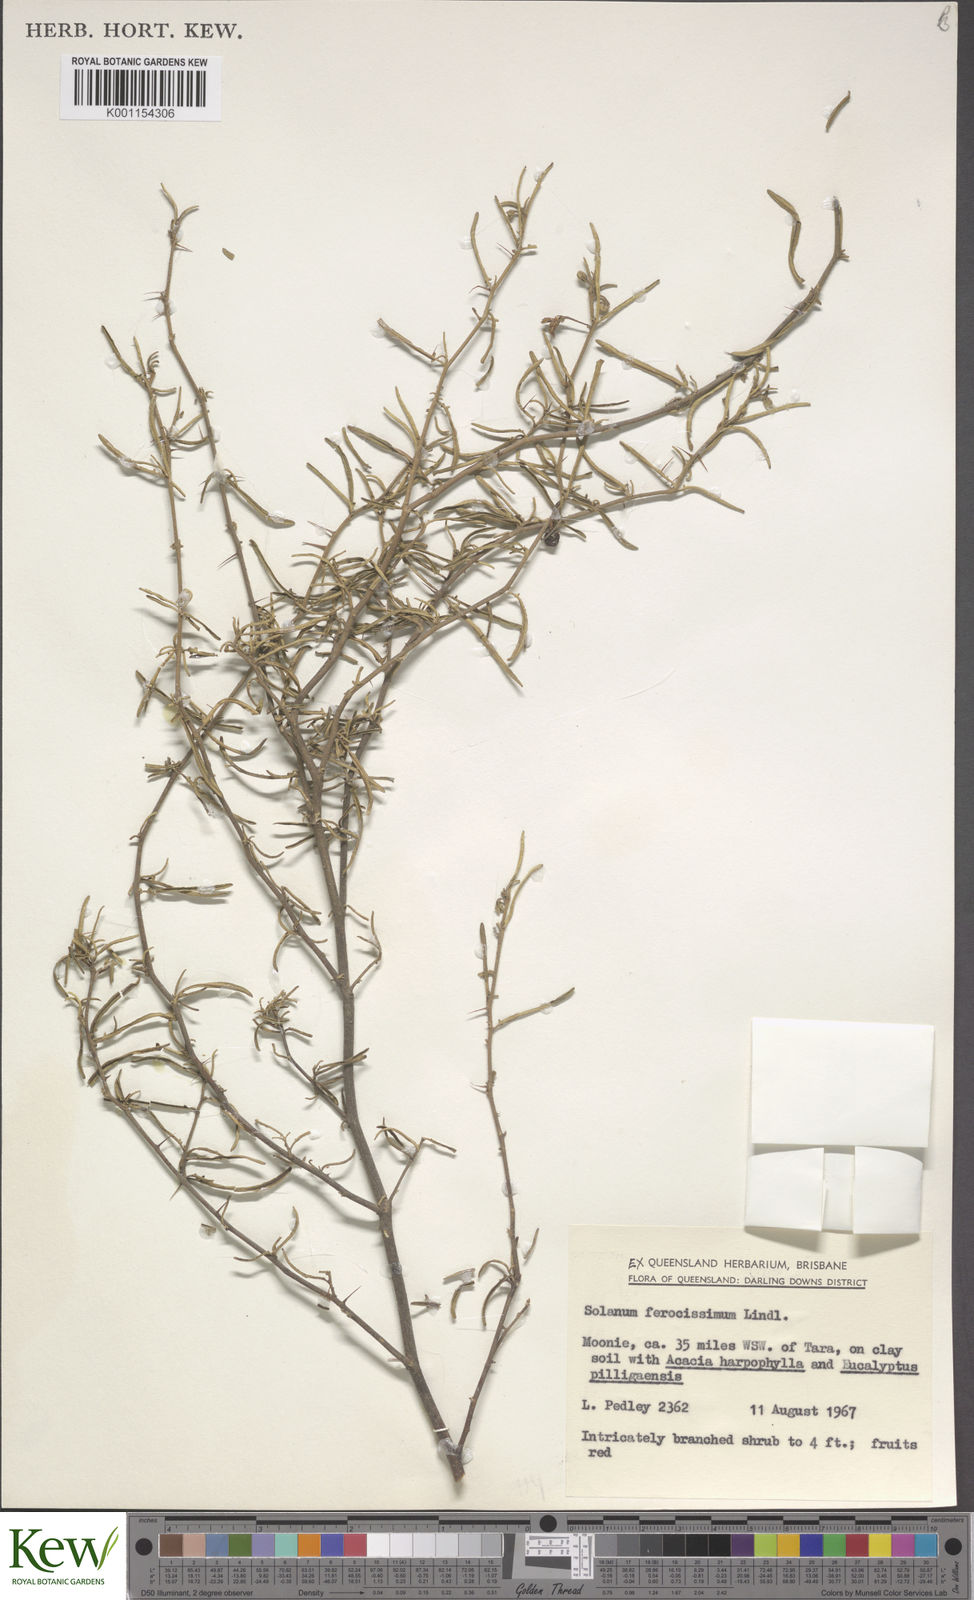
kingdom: Plantae
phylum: Tracheophyta
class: Magnoliopsida
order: Solanales
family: Solanaceae
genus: Solanum
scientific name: Solanum ferocissimum
